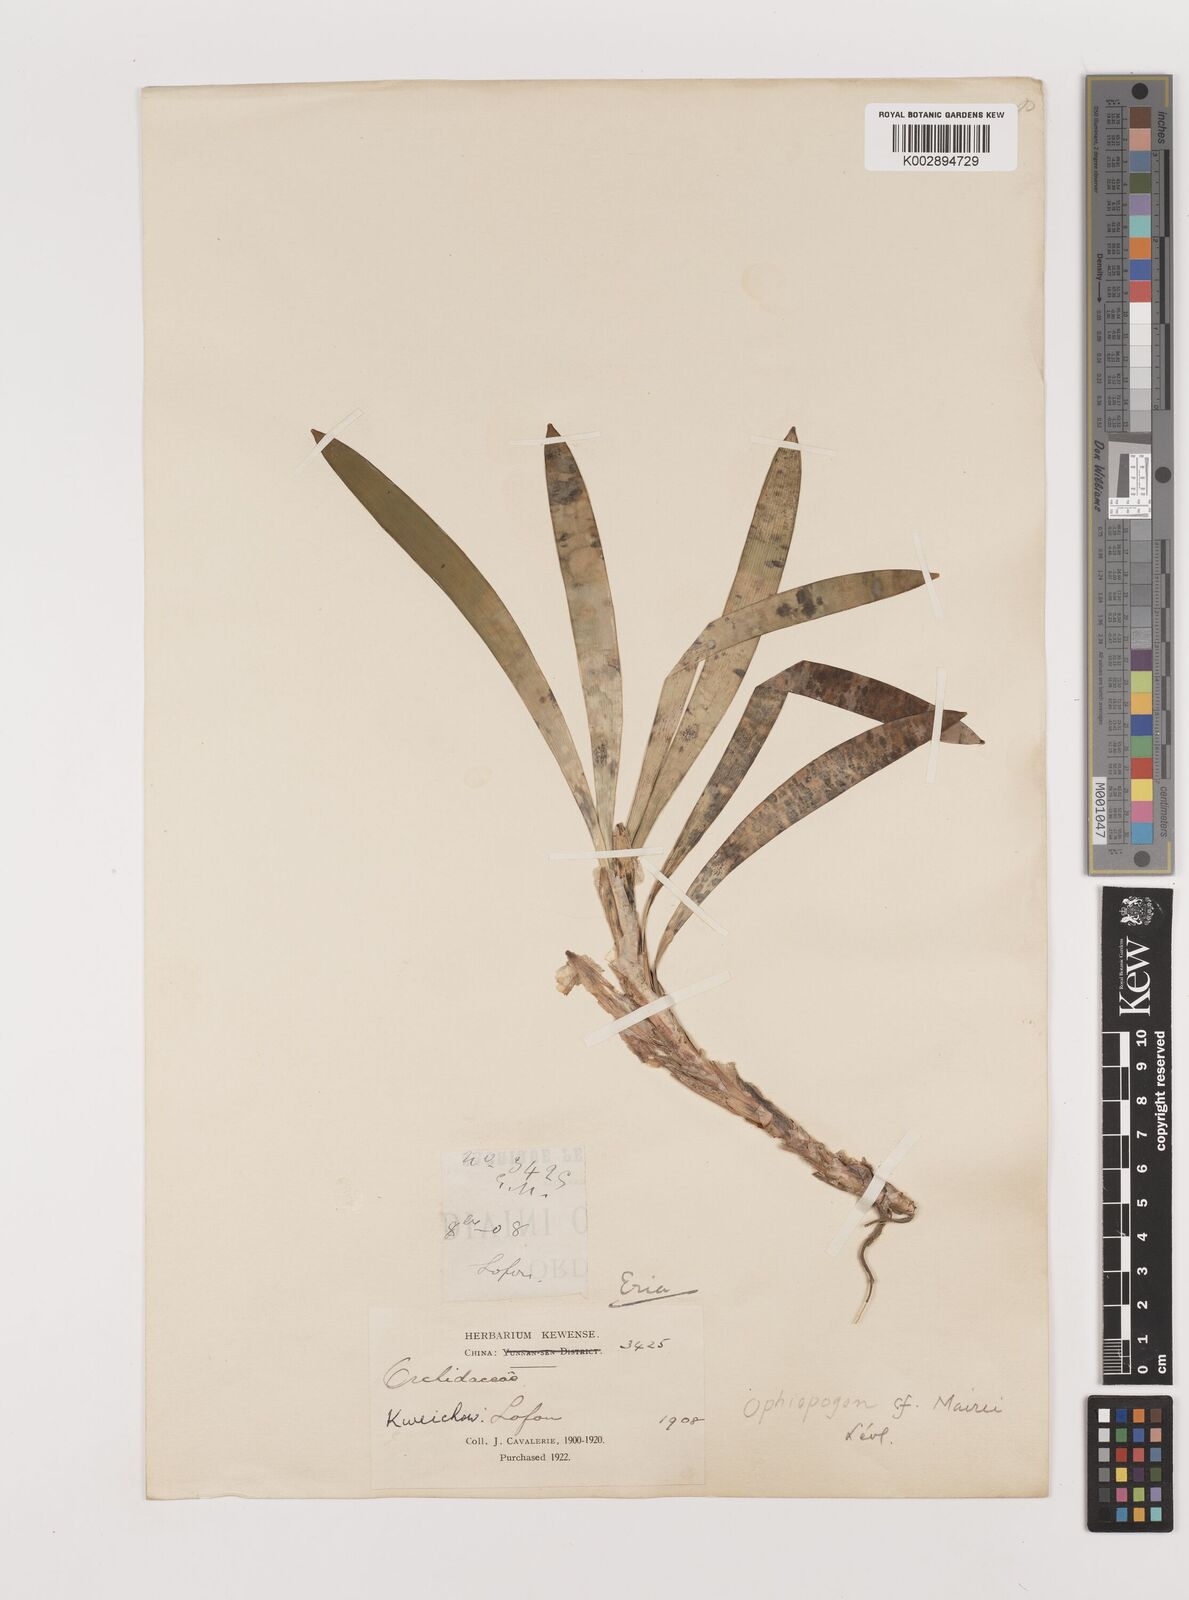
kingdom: Plantae
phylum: Tracheophyta
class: Liliopsida
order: Asparagales
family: Asparagaceae
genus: Ophiopogon
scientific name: Ophiopogon mairei
